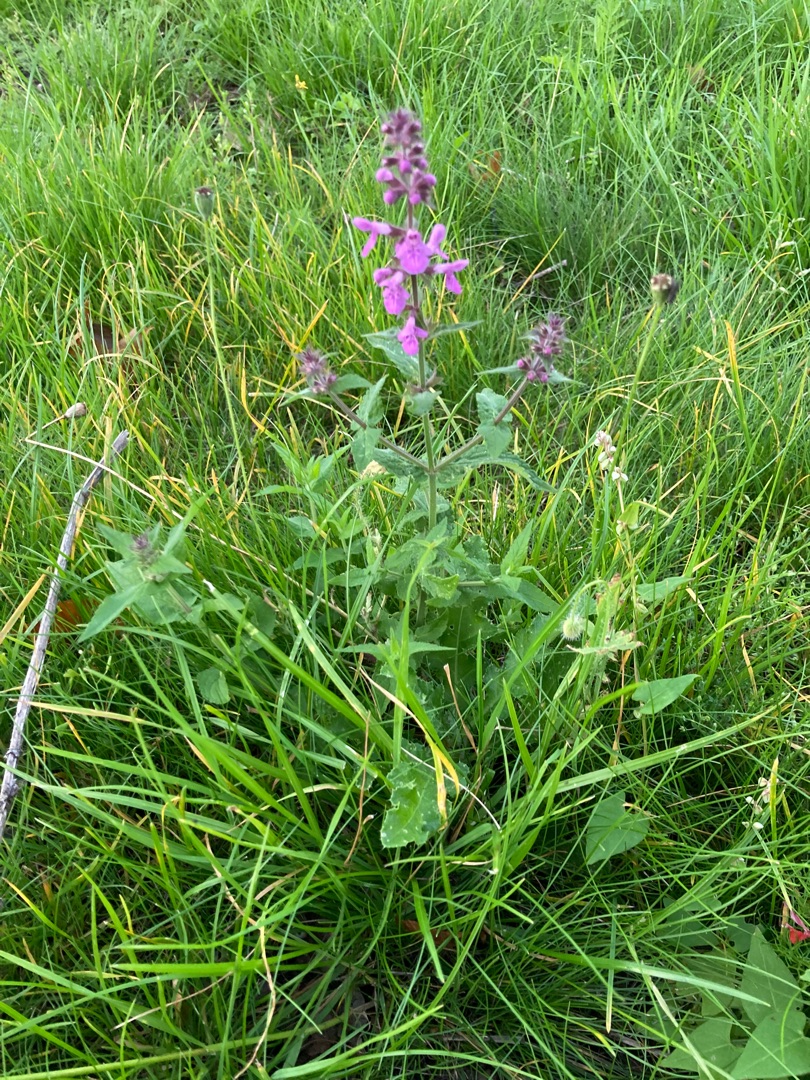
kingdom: Plantae
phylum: Tracheophyta
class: Magnoliopsida
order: Lamiales
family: Lamiaceae
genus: Stachys
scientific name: Stachys palustris
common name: Kær-galtetand
